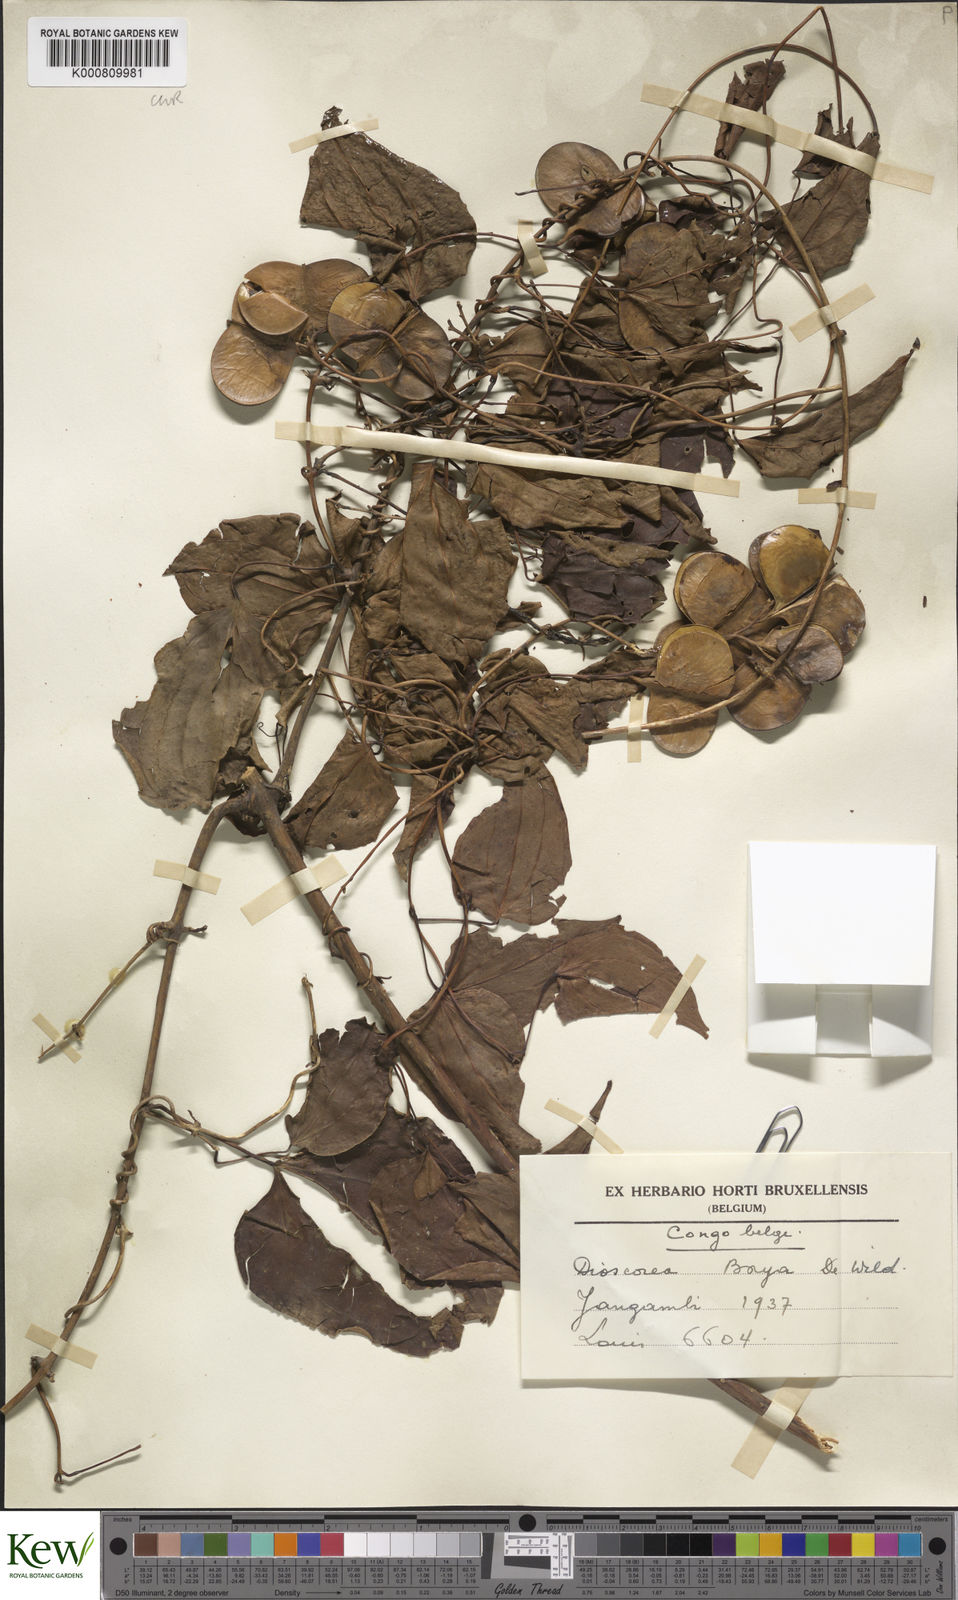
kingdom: Plantae
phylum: Tracheophyta
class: Liliopsida
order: Dioscoreales
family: Dioscoreaceae
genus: Dioscorea
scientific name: Dioscorea baya
